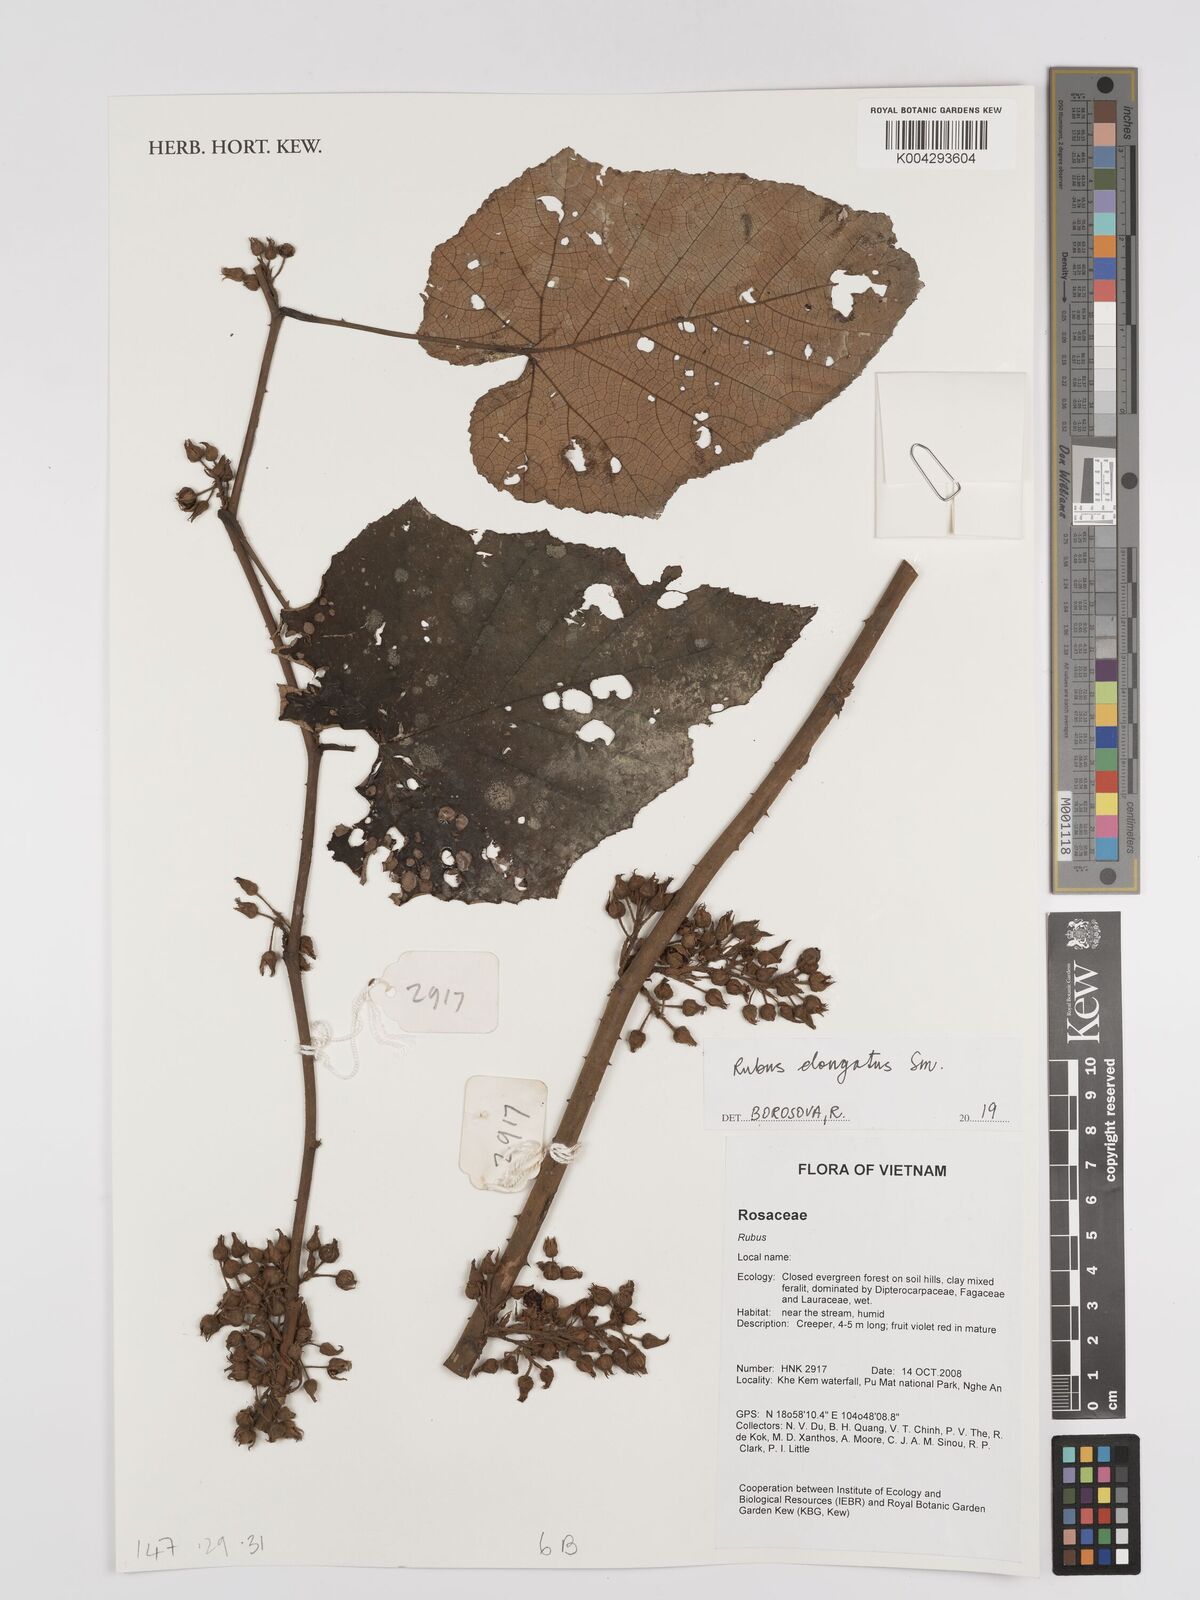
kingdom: Plantae
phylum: Tracheophyta
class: Magnoliopsida
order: Rosales
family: Rosaceae
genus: Rubus
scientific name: Rubus
